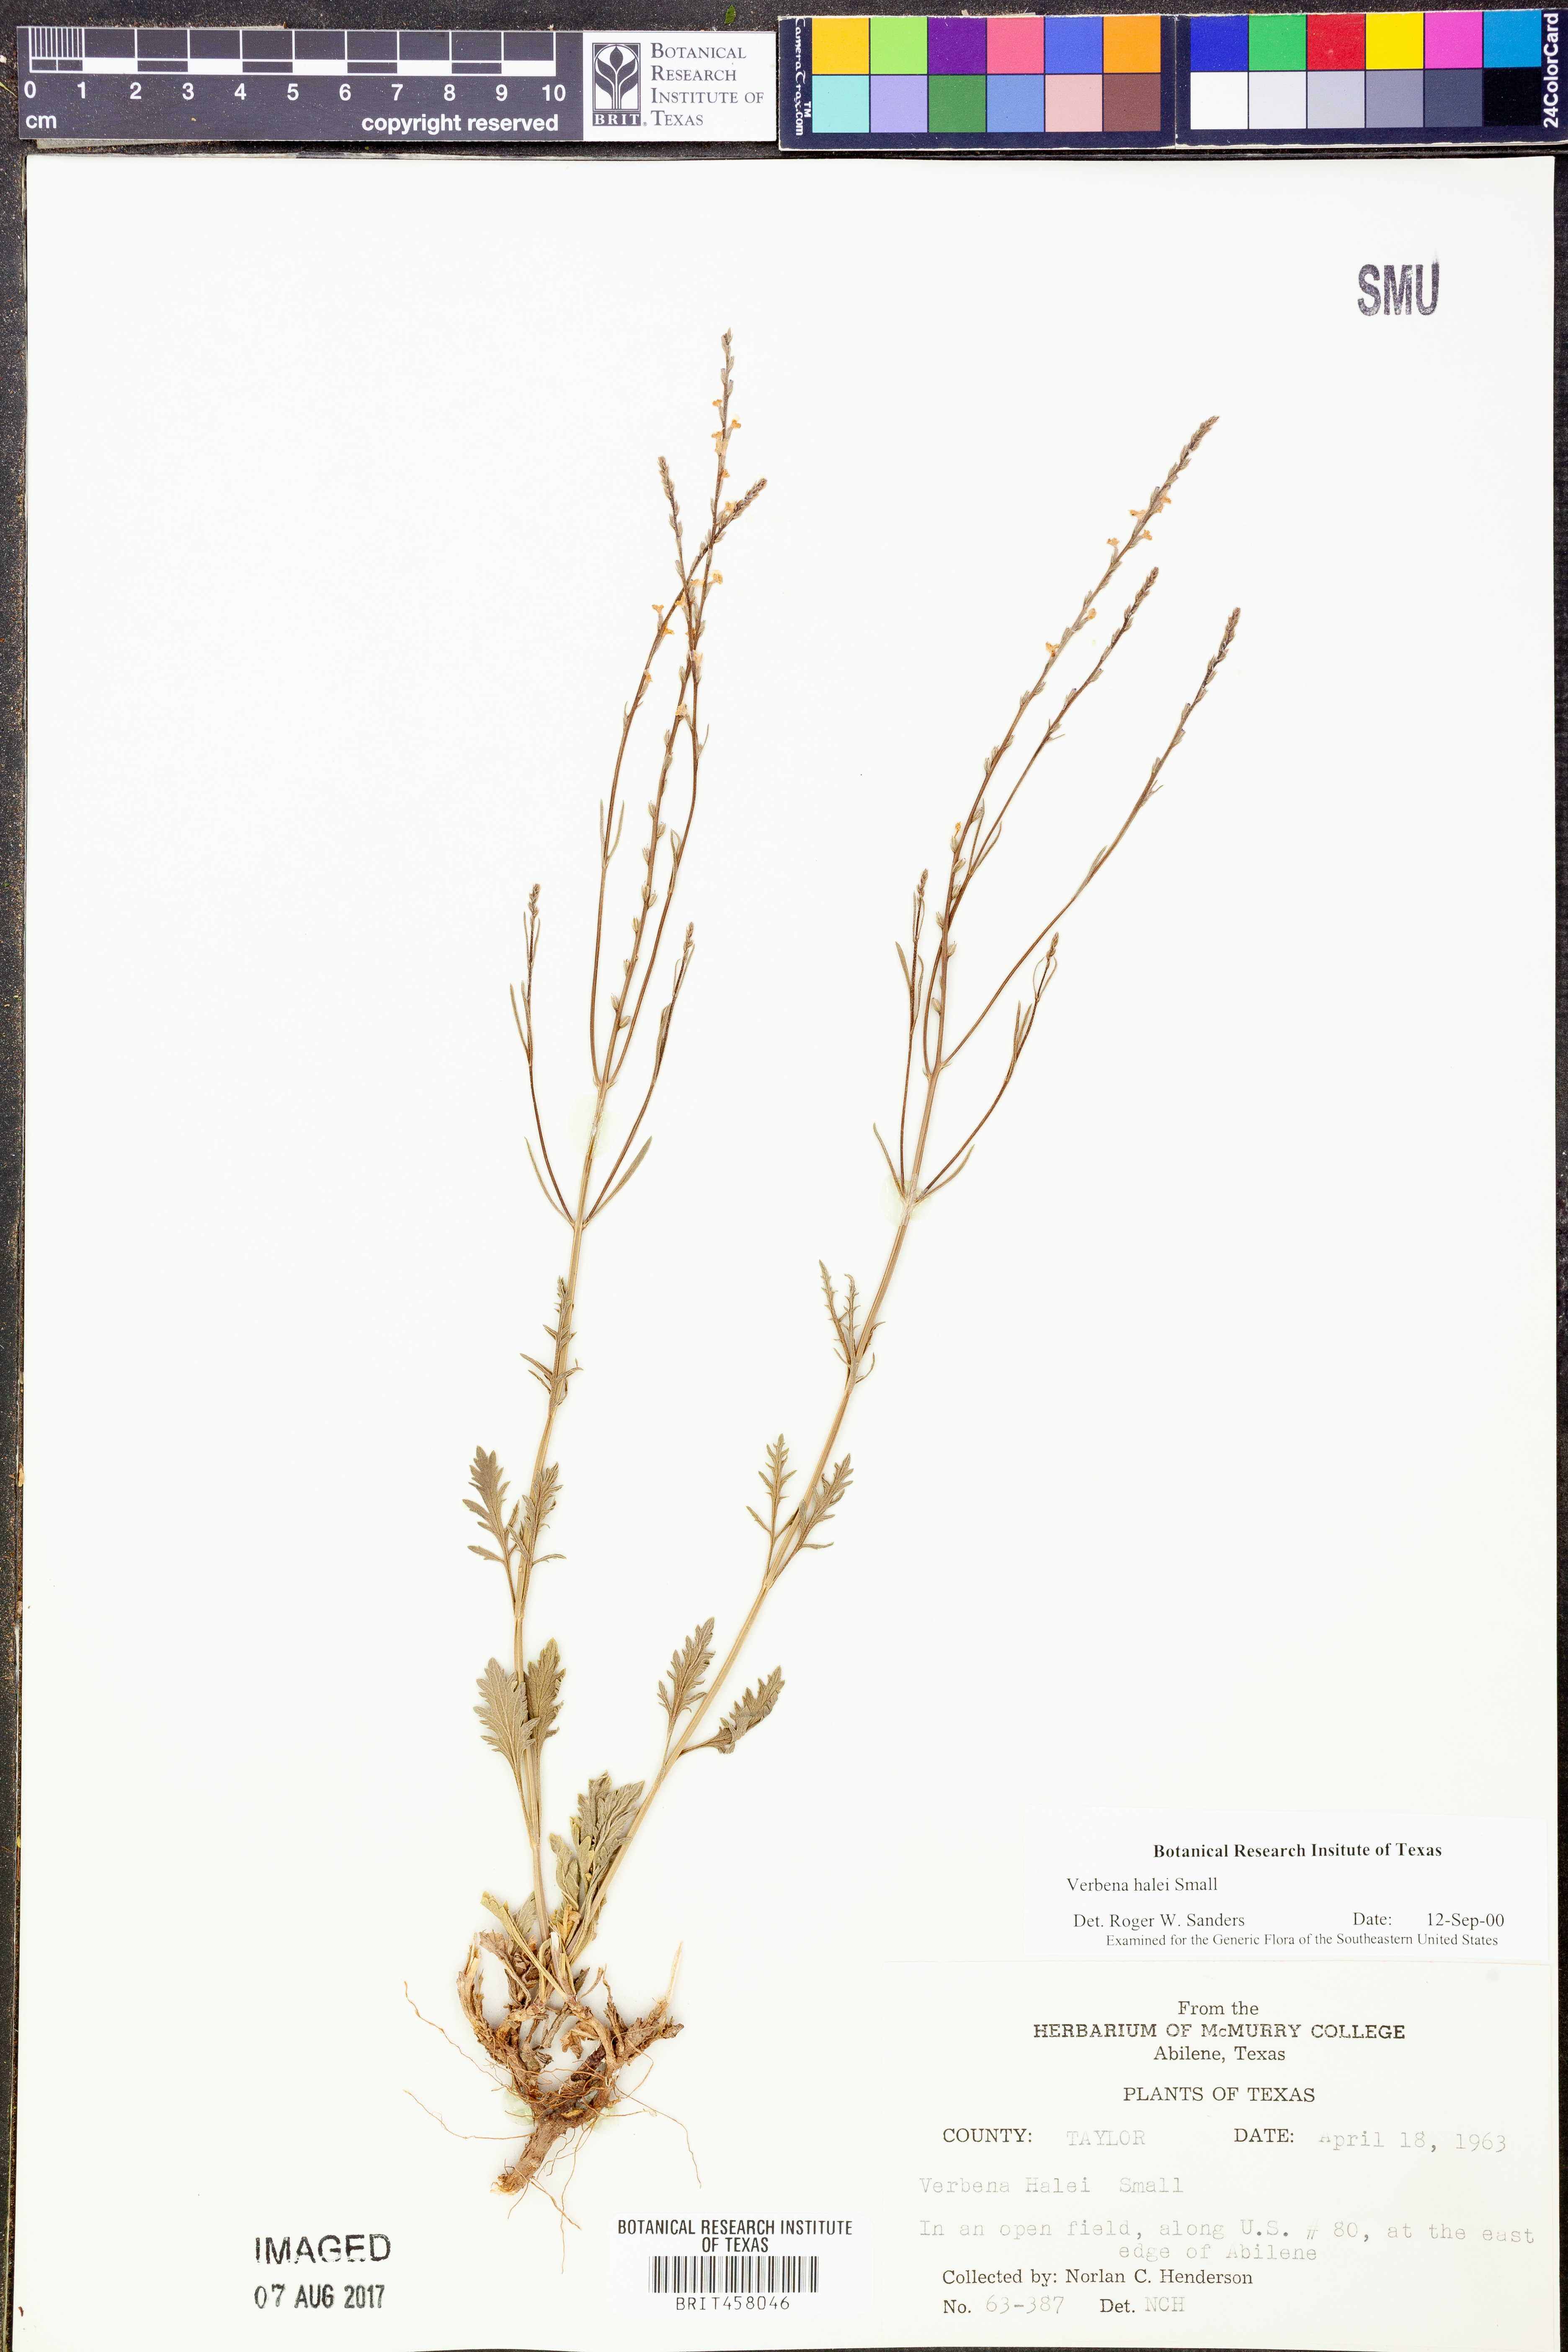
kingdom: Plantae
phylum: Tracheophyta
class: Magnoliopsida
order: Lamiales
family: Verbenaceae
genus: Verbena
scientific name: Verbena halei
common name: Texas vervain
